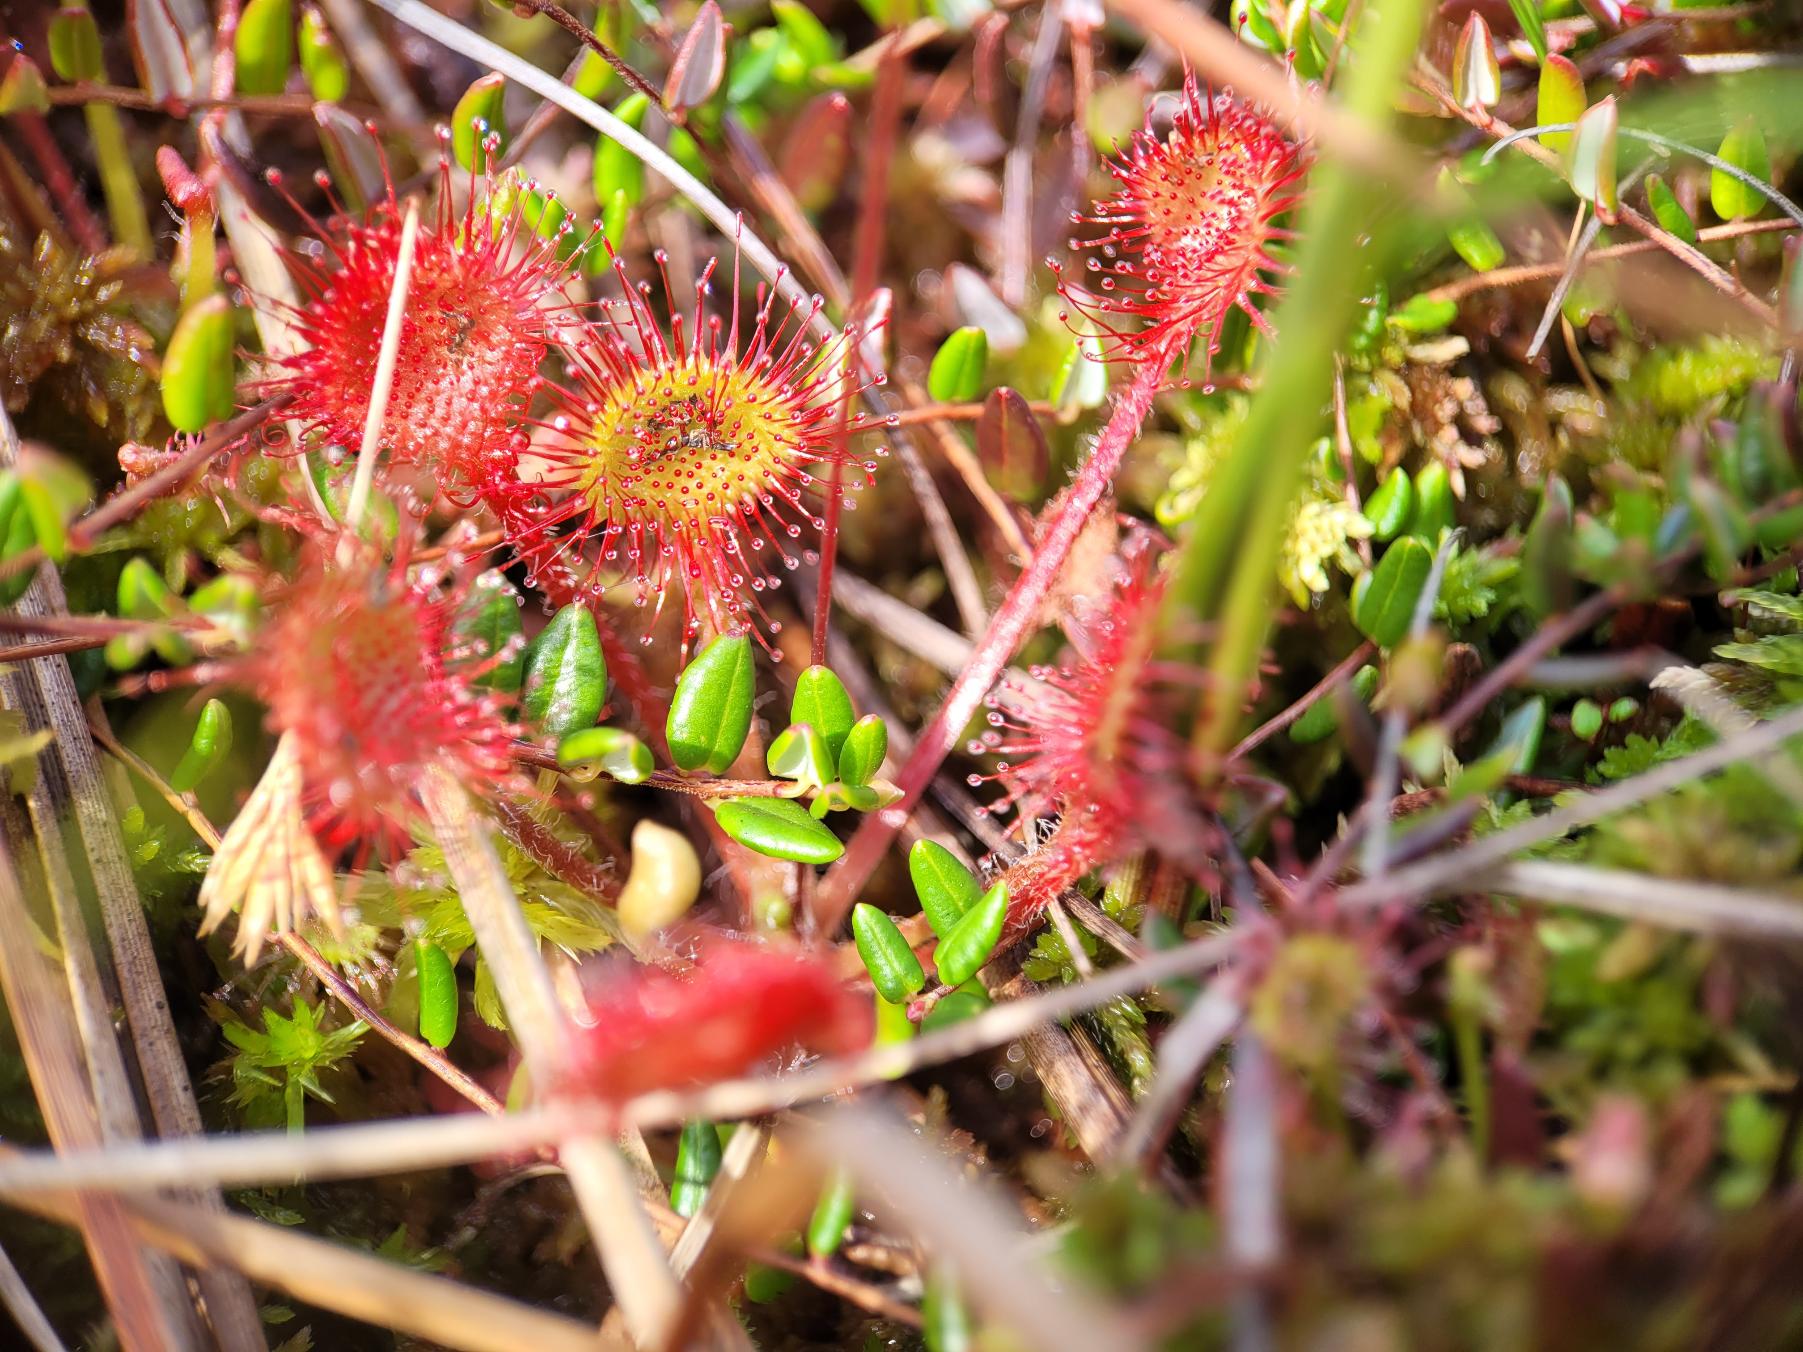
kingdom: Plantae
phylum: Tracheophyta
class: Magnoliopsida
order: Caryophyllales
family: Droseraceae
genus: Drosera
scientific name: Drosera rotundifolia
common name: Rundbladet soldug
